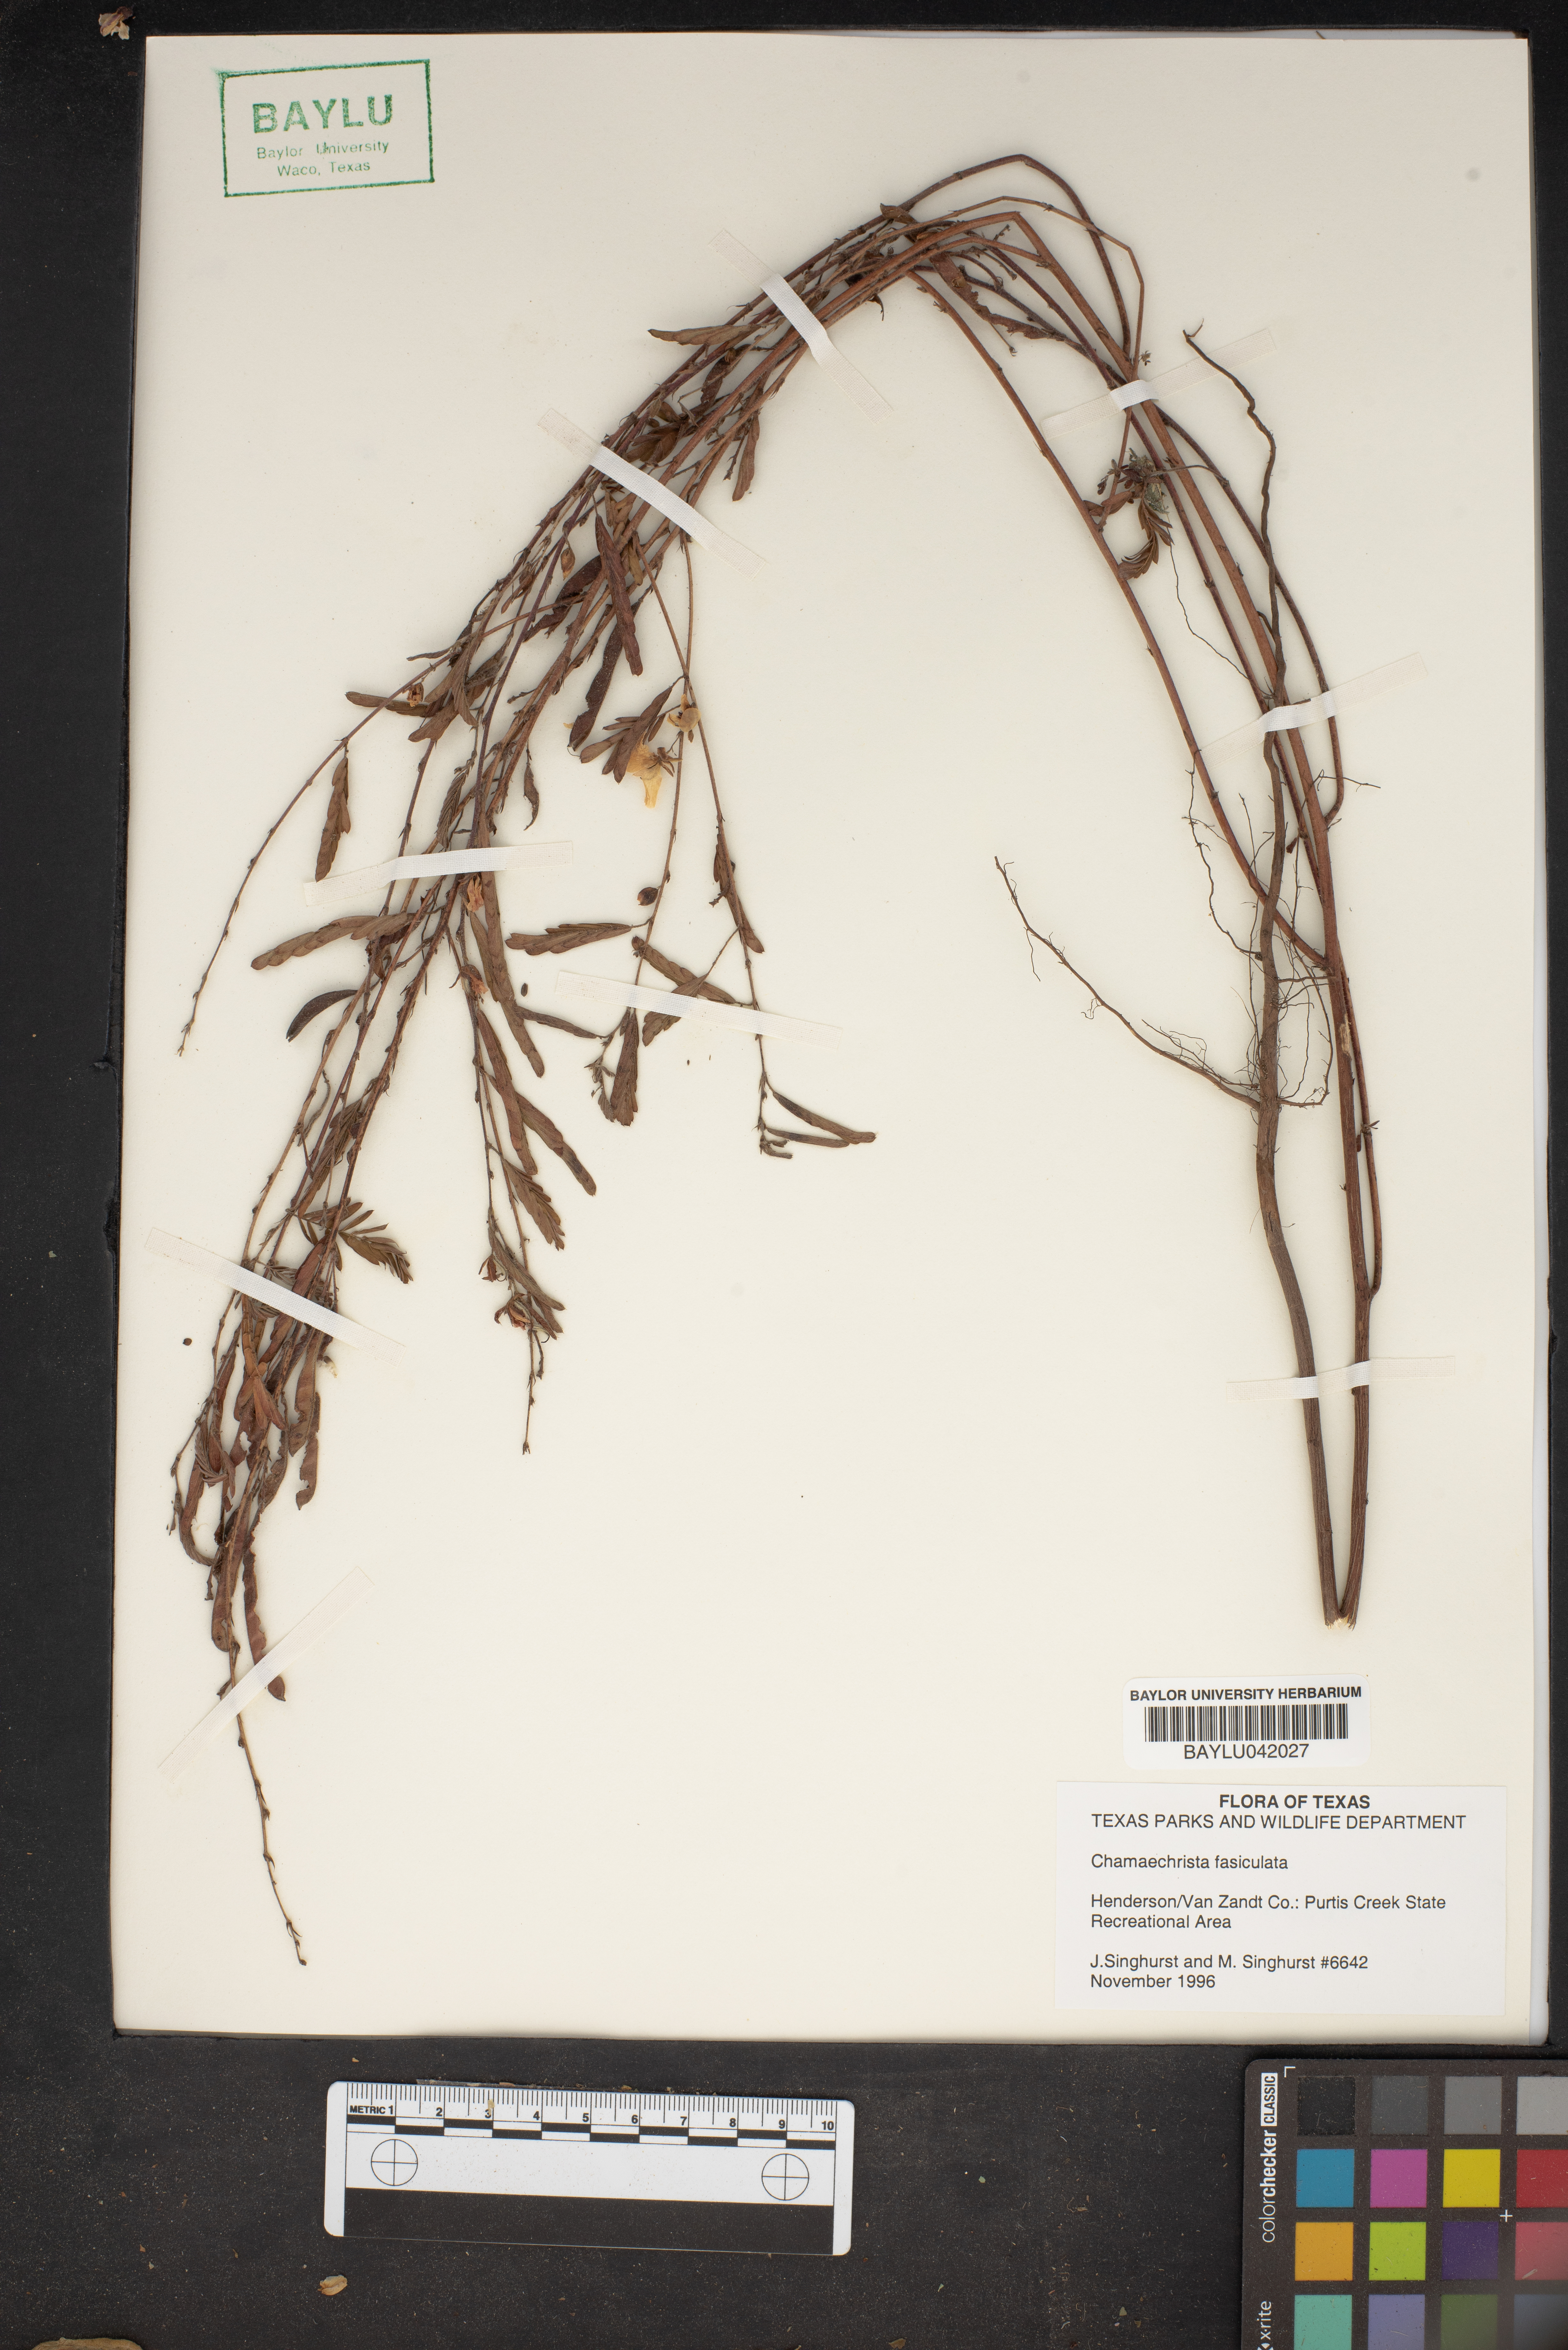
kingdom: Plantae
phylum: Tracheophyta
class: Magnoliopsida
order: Fabales
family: Fabaceae
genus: Chamaecrista
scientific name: Chamaecrista fasciculata
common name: Golden cassia
